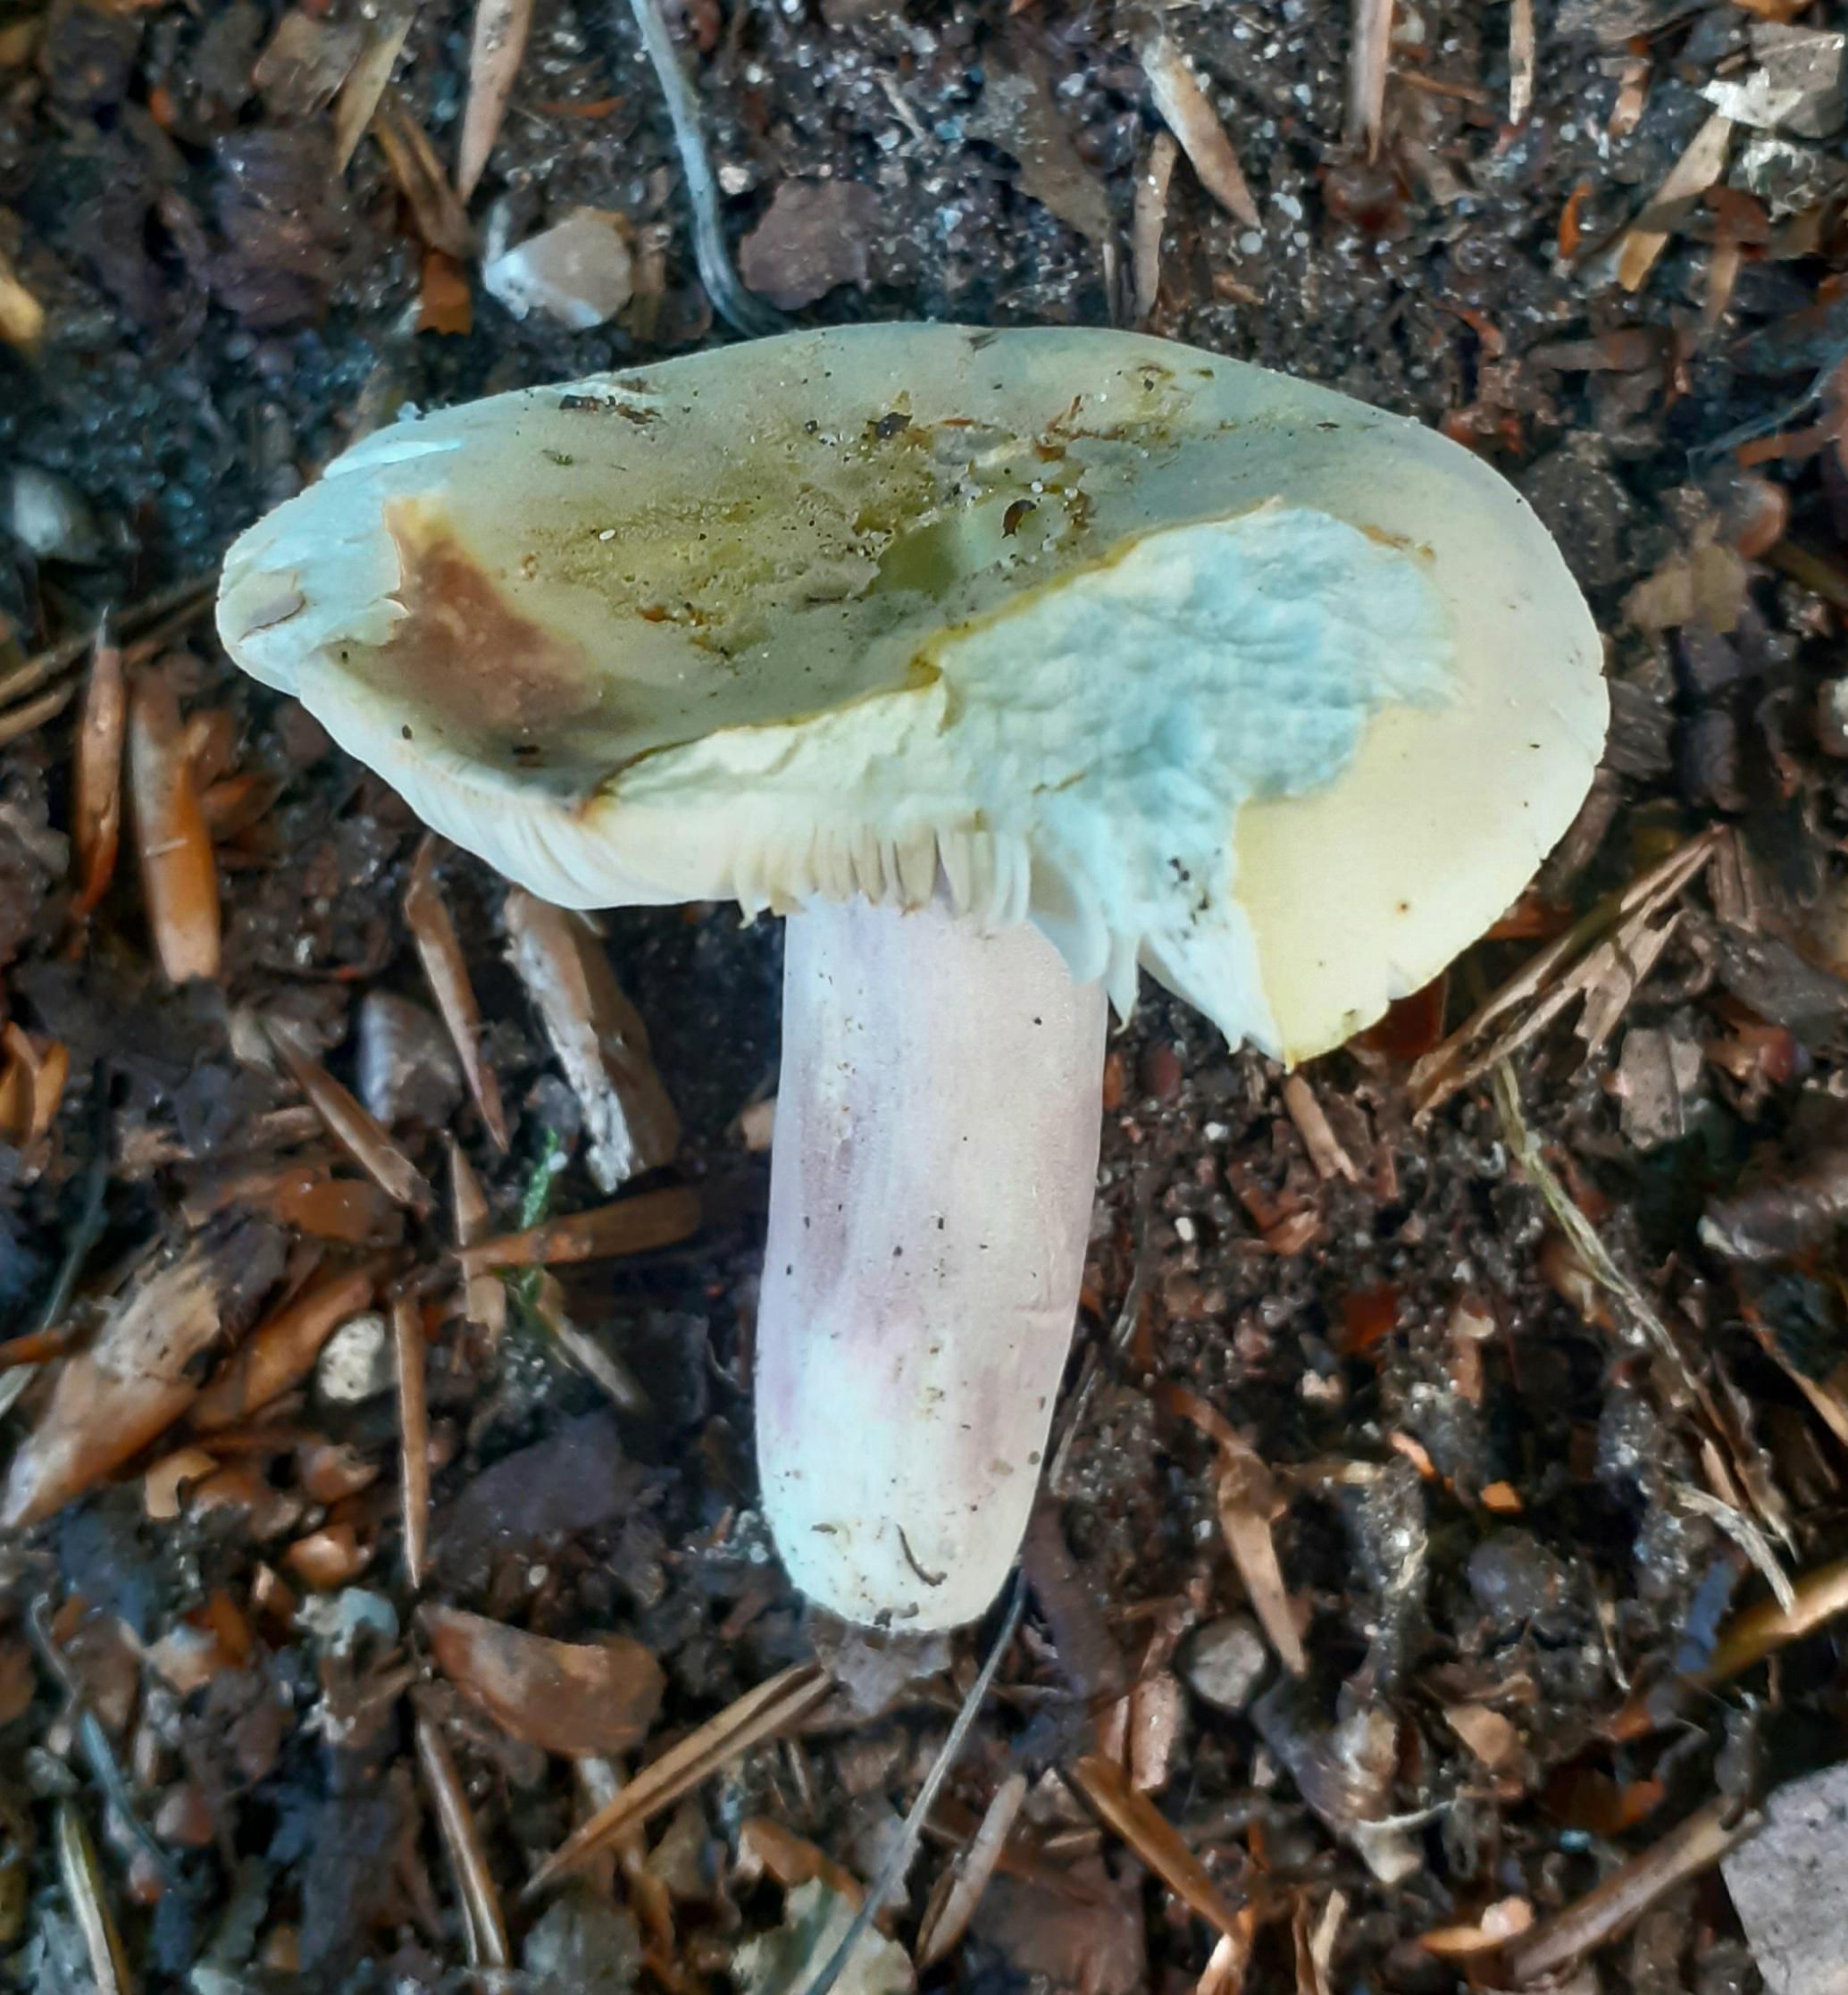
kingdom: Fungi
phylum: Basidiomycota
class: Agaricomycetes
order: Russulales
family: Russulaceae
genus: Russula
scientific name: Russula violeipes
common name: ferskengul skørhat
